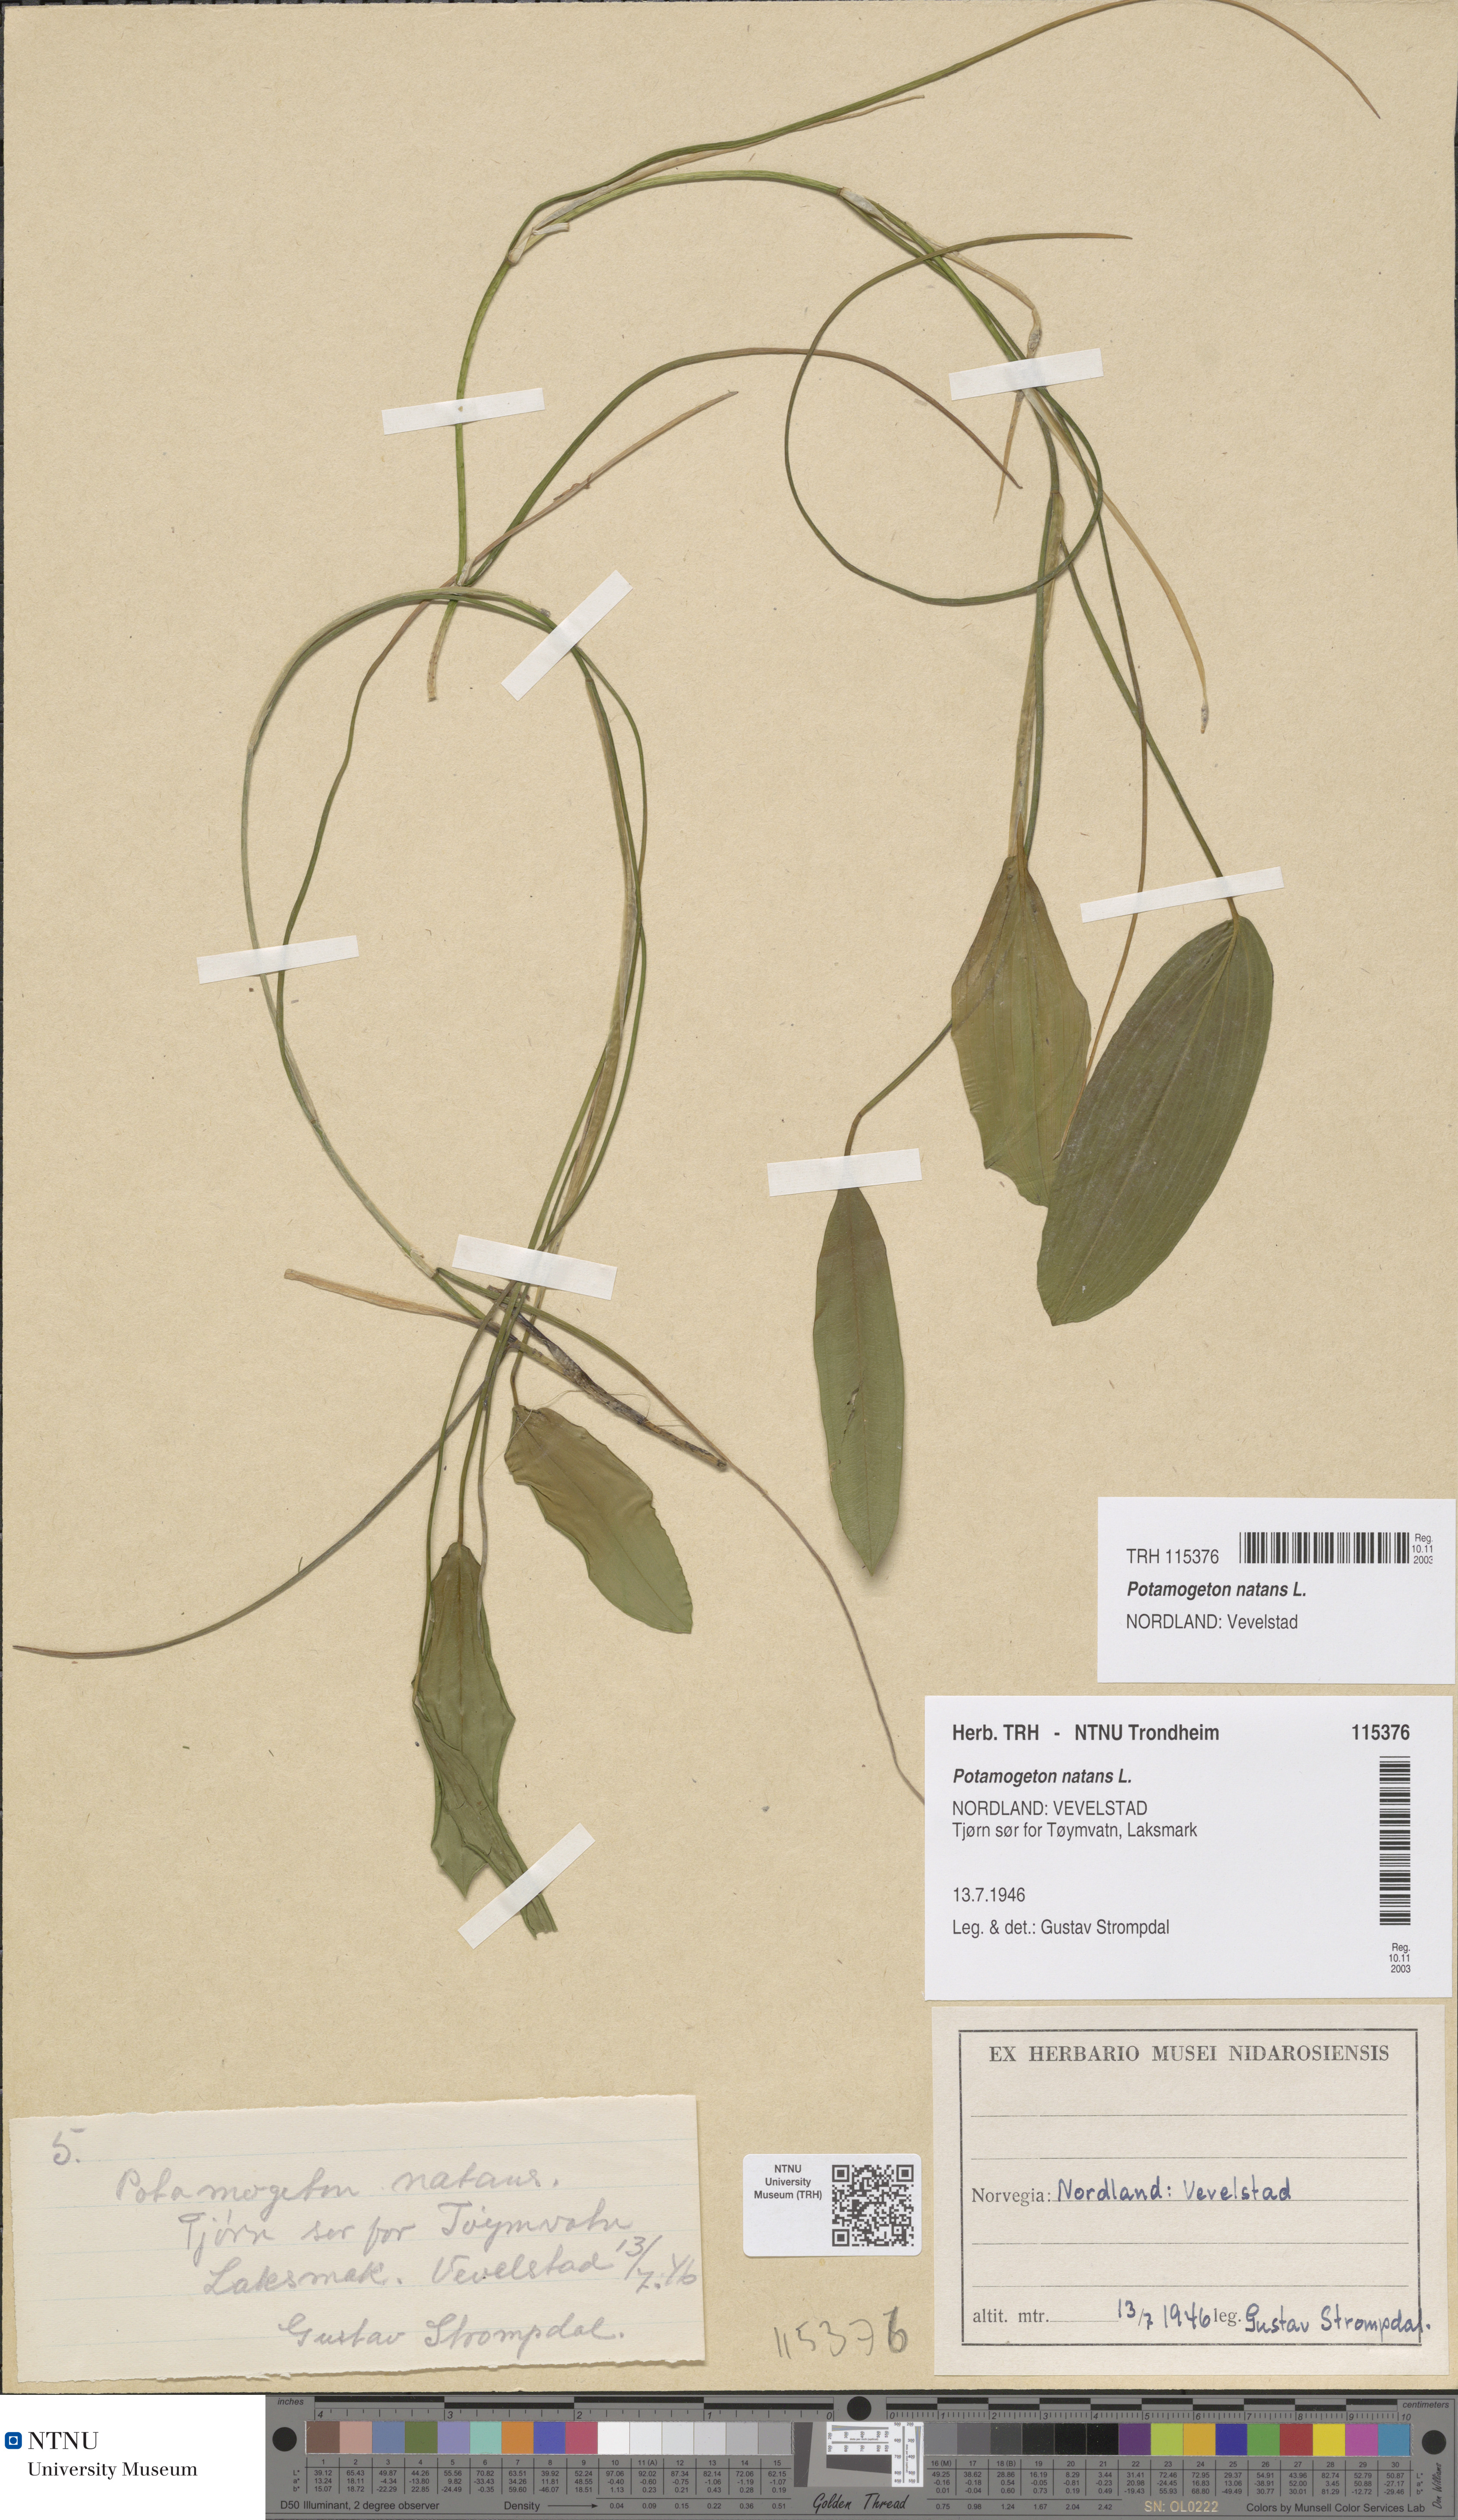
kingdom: Plantae
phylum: Tracheophyta
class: Liliopsida
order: Alismatales
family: Potamogetonaceae
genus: Potamogeton
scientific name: Potamogeton natans
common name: Broad-leaved pondweed
